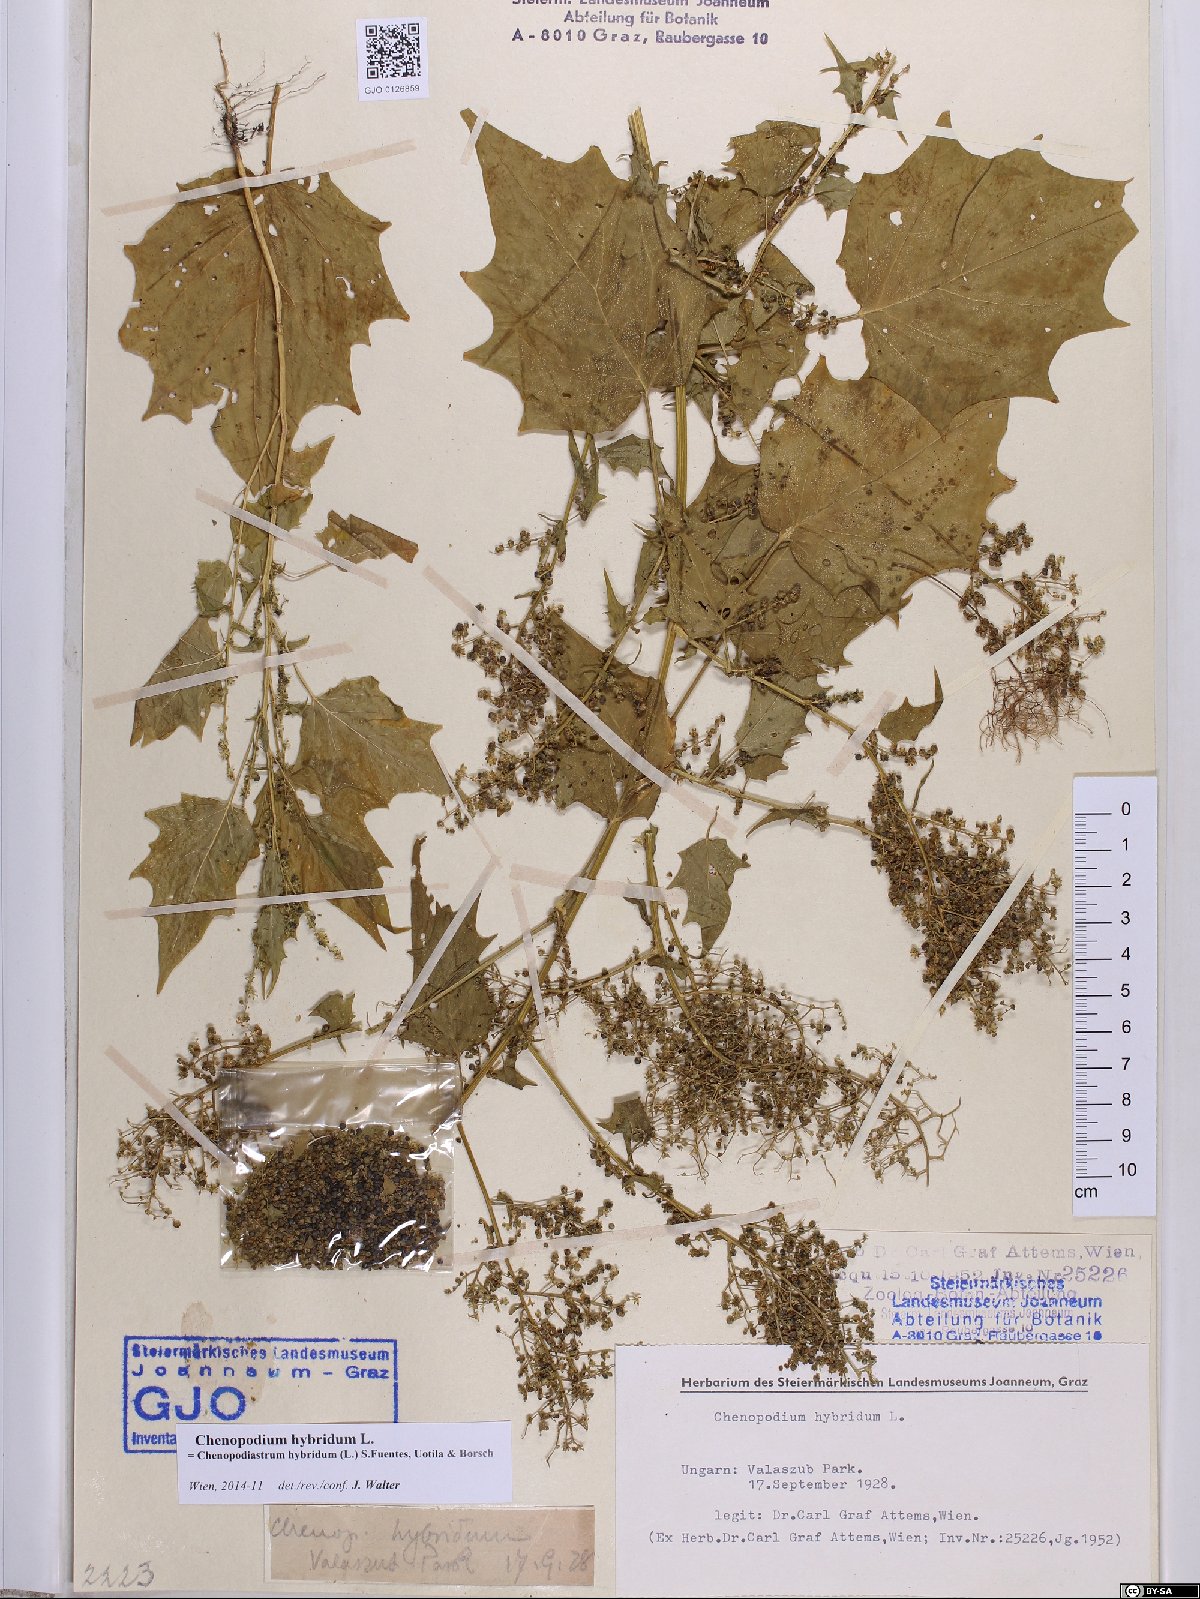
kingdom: Plantae
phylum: Tracheophyta
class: Magnoliopsida
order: Caryophyllales
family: Amaranthaceae
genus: Chenopodiastrum
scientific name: Chenopodiastrum hybridum
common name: Mapleleaf goosefoot
